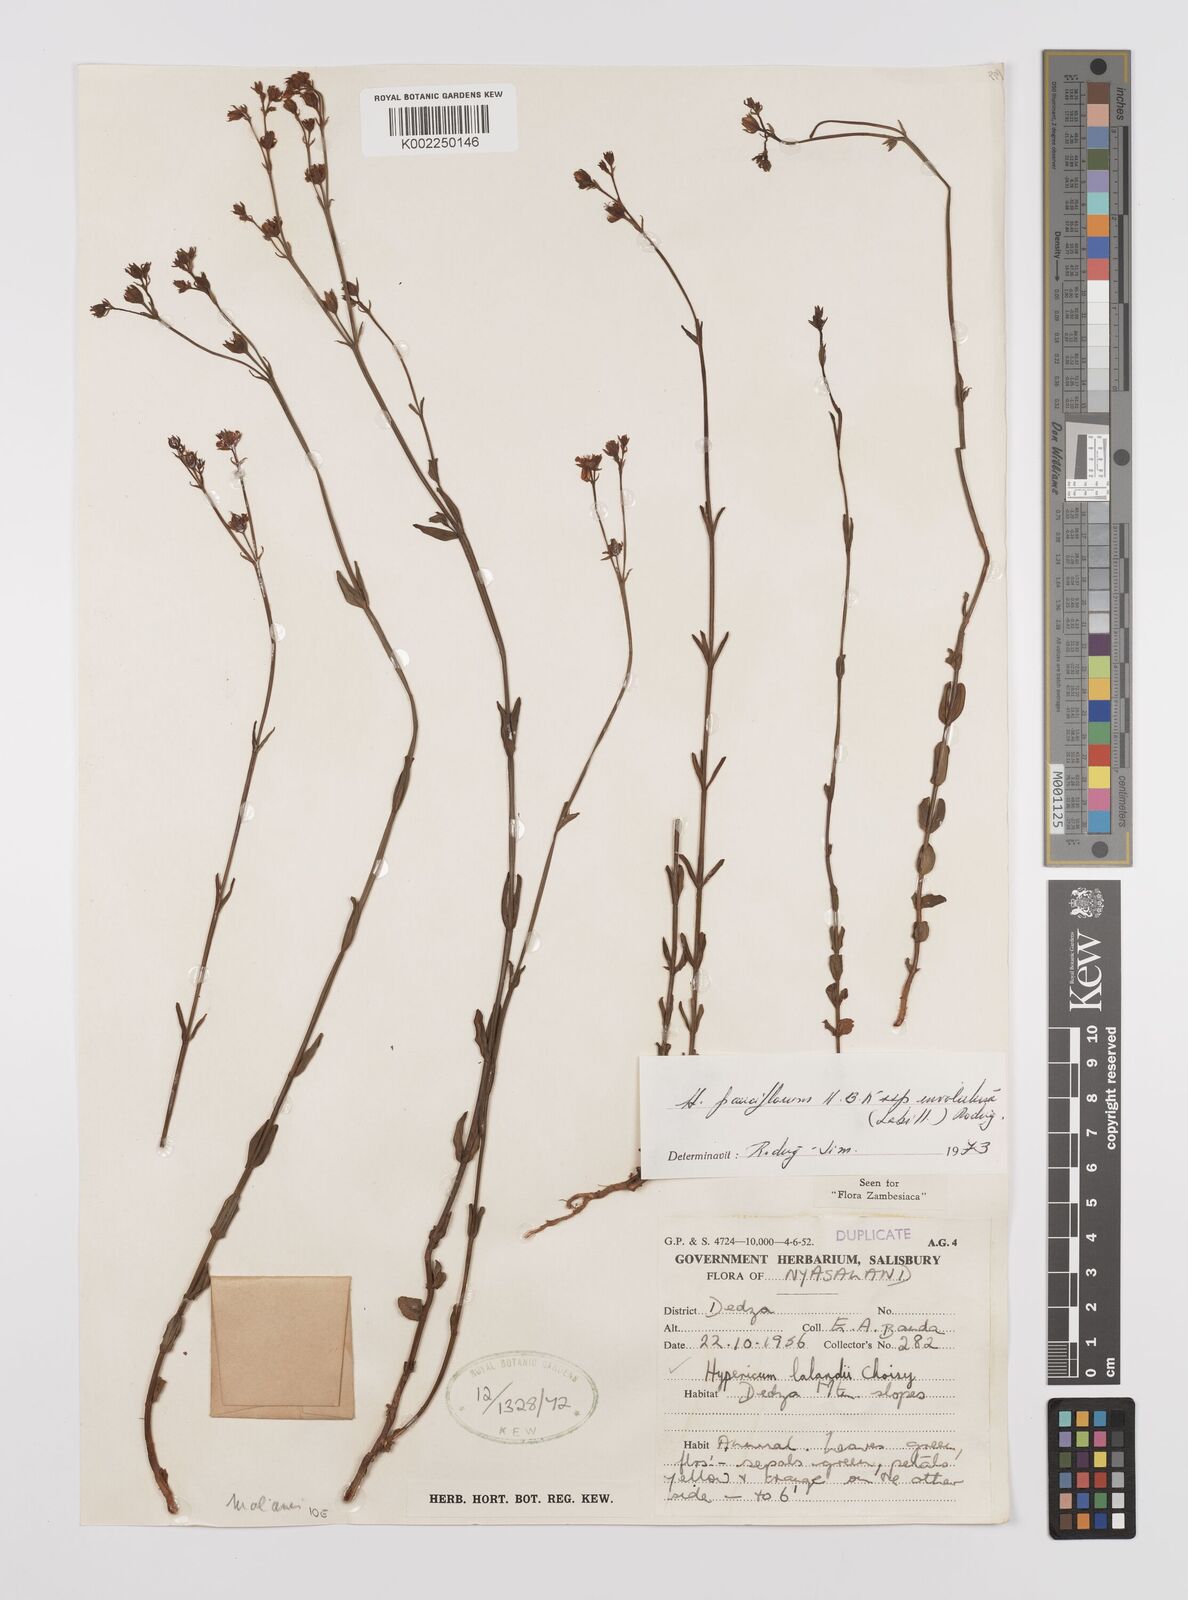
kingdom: Plantae
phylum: Tracheophyta
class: Magnoliopsida
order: Malpighiales
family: Hypericaceae
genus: Hypericum
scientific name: Hypericum lalandii
